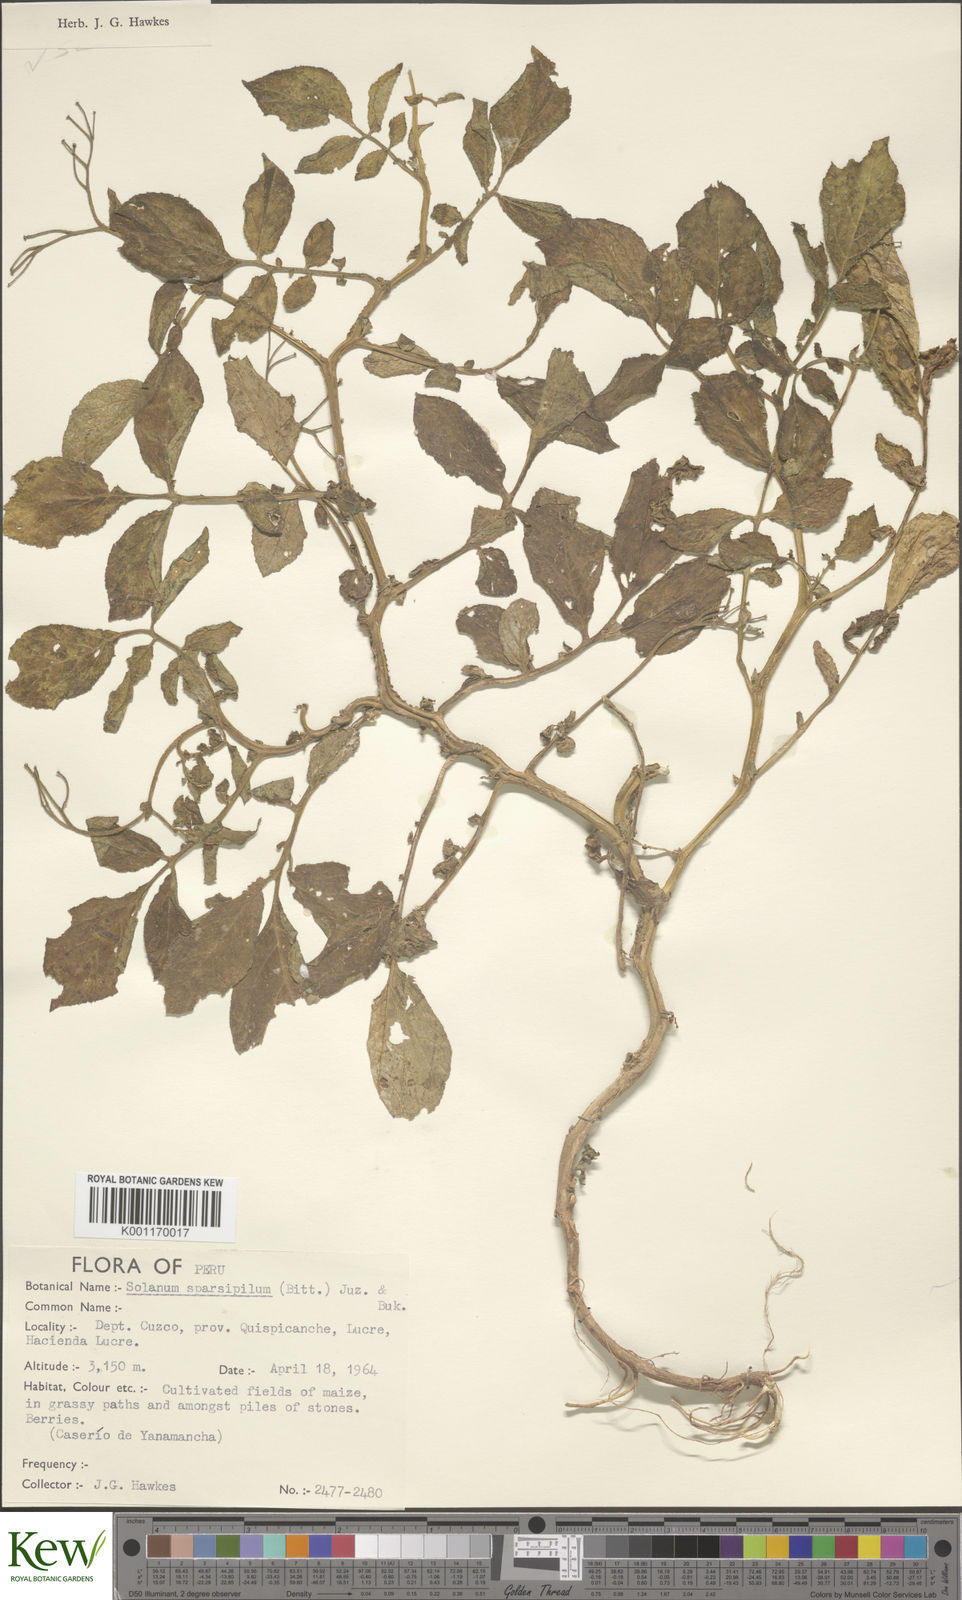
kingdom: Plantae
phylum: Tracheophyta
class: Magnoliopsida
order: Solanales
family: Solanaceae
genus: Solanum
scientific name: Solanum brevicaule
